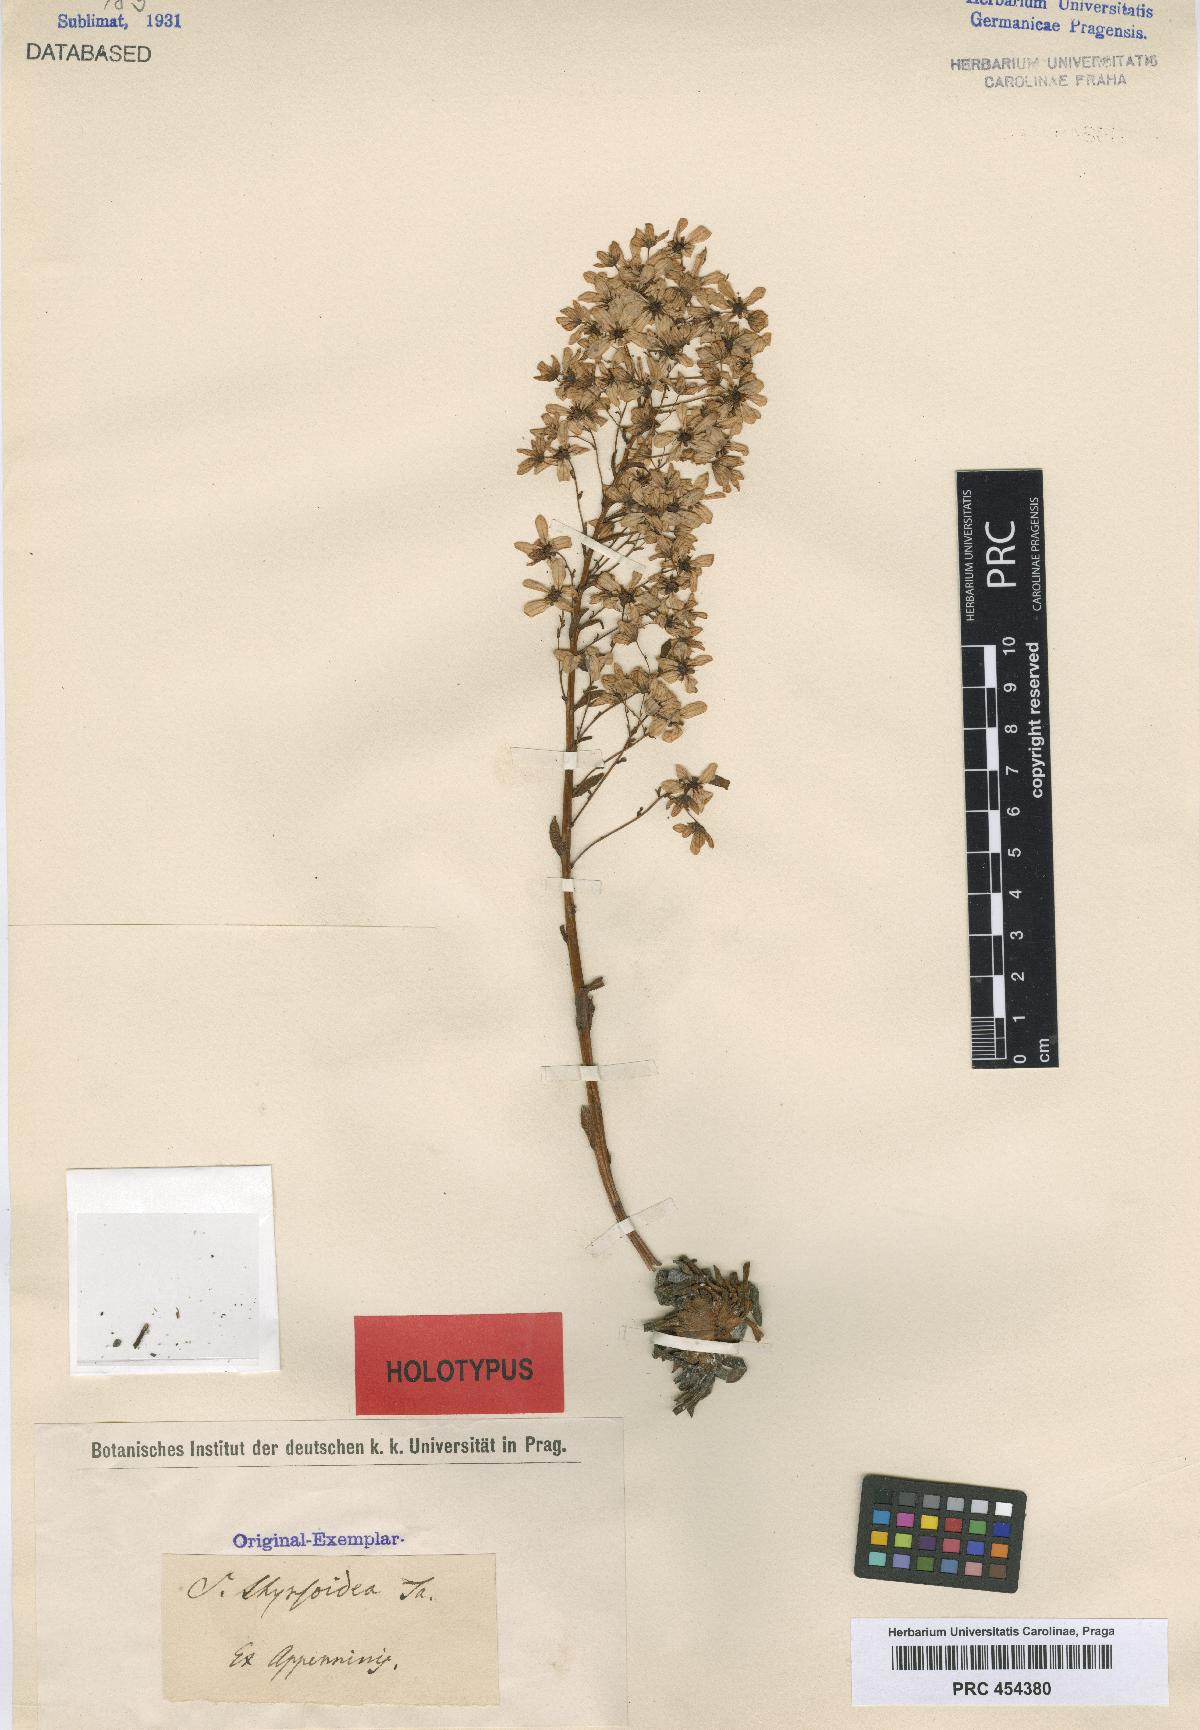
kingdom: Plantae
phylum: Tracheophyta
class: Magnoliopsida
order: Saxifragales
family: Saxifragaceae
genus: Bergenia
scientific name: Bergenia ciliata
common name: Hairy bergenia
